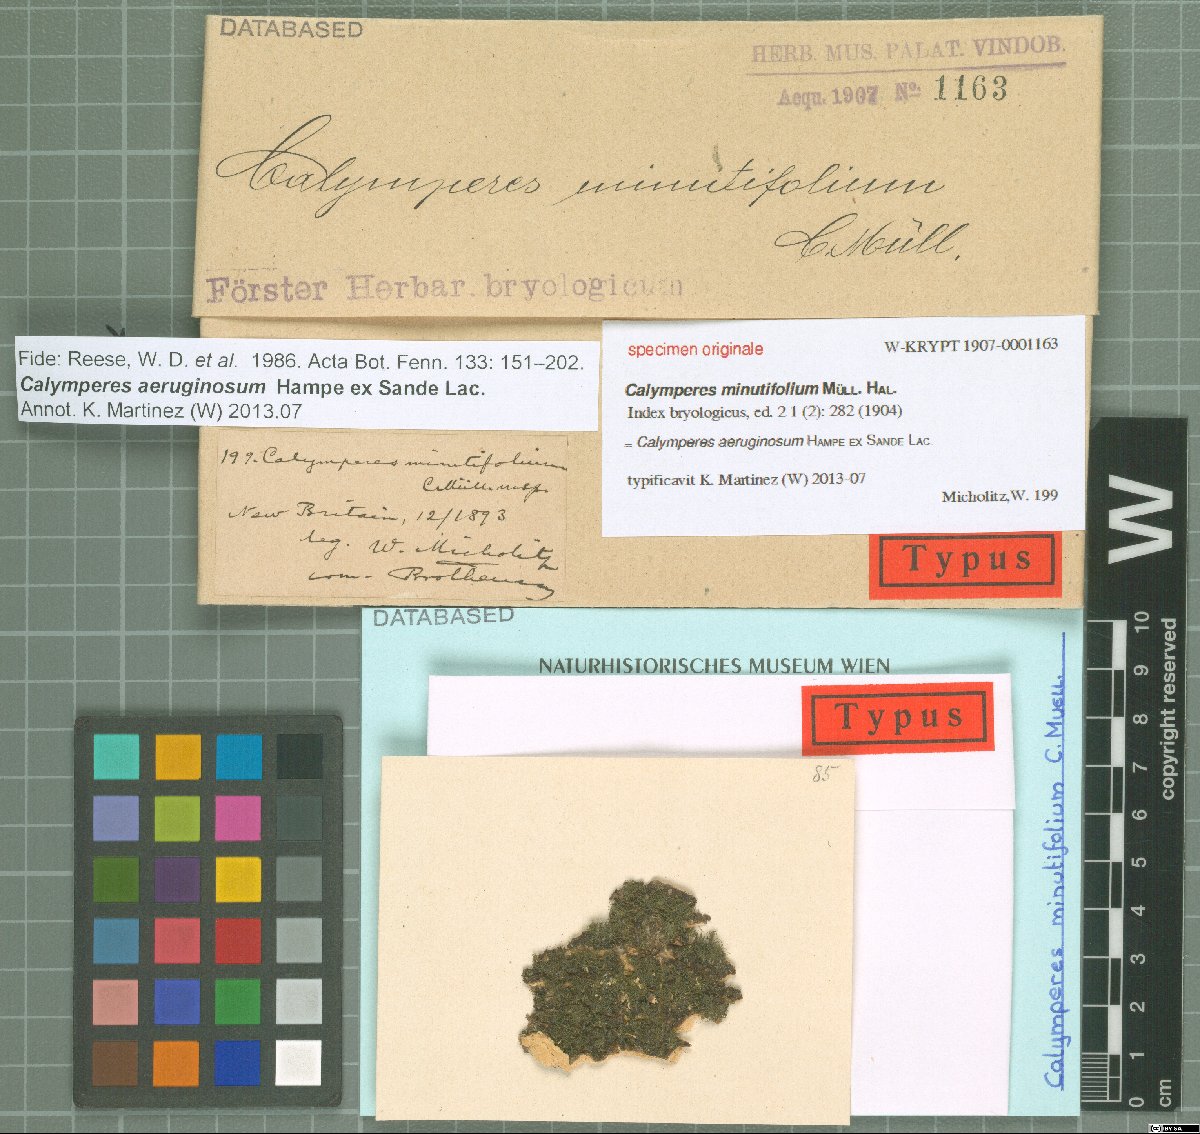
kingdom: Plantae
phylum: Bryophyta
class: Bryopsida
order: Dicranales
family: Calymperaceae
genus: Calymperes
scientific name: Calymperes
